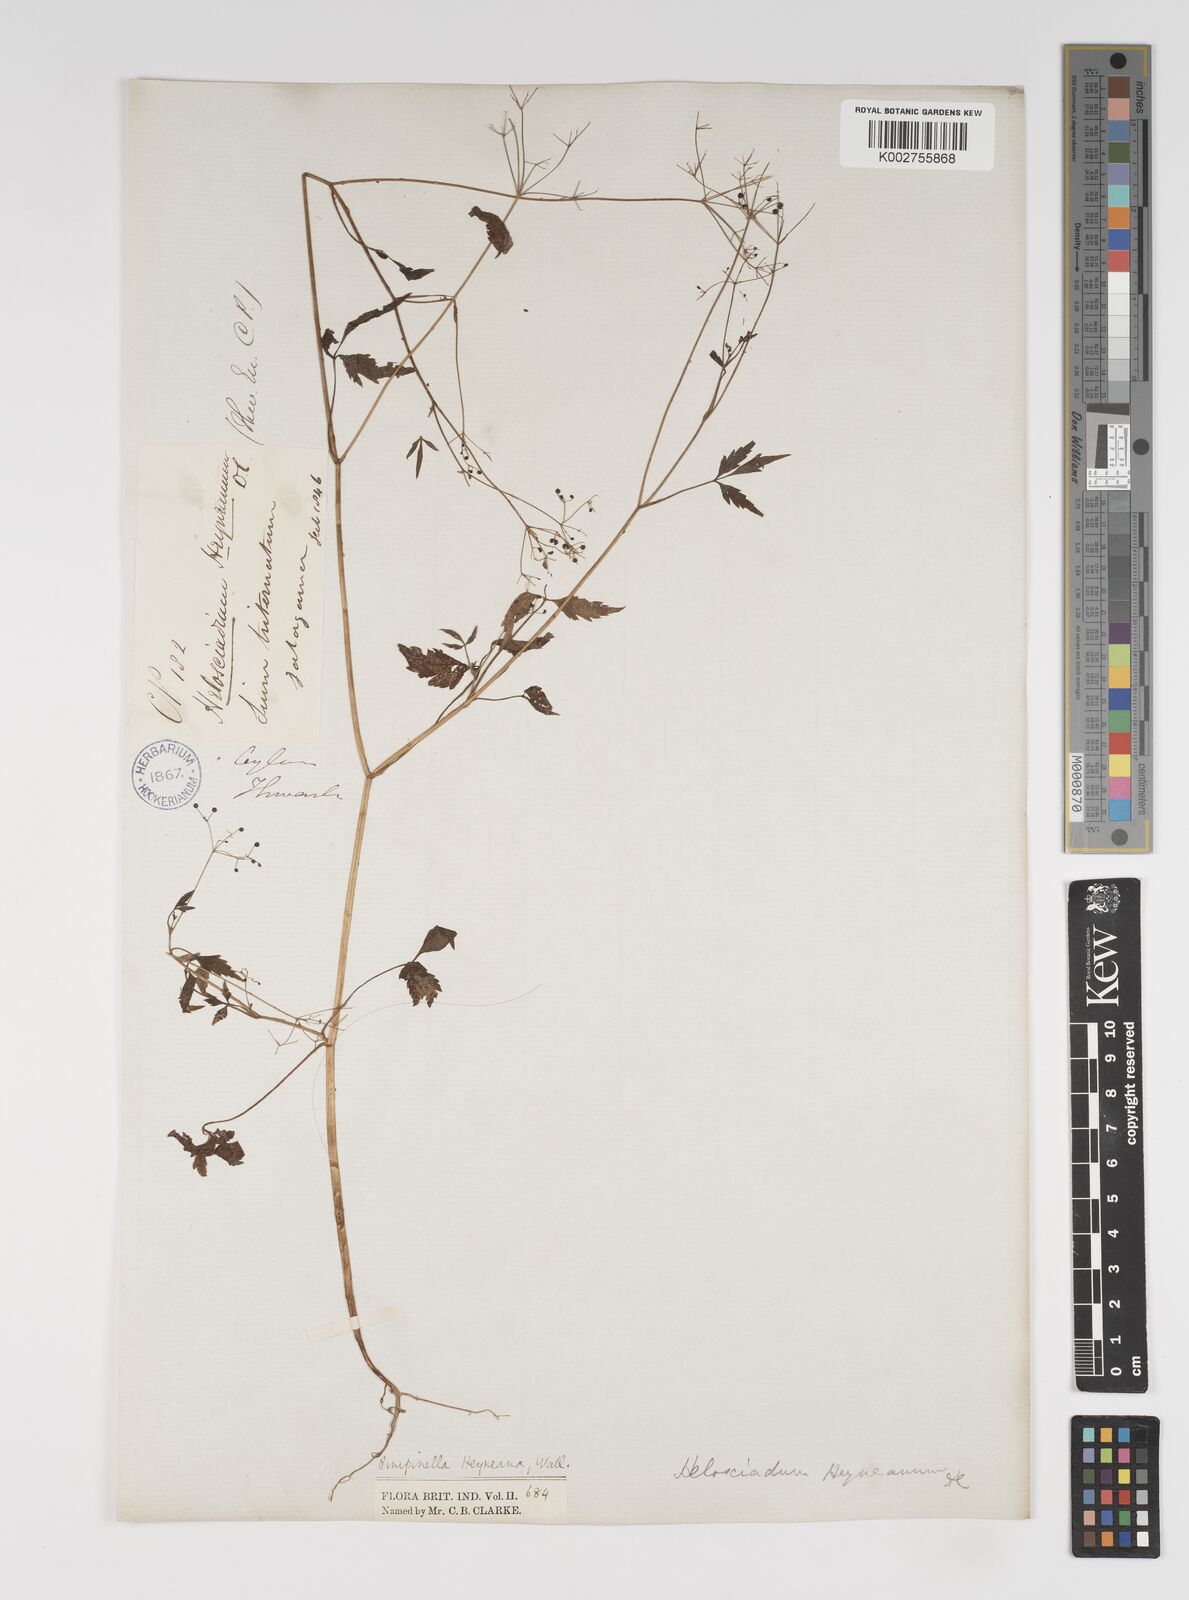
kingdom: Plantae
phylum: Tracheophyta
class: Magnoliopsida
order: Apiales
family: Apiaceae
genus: Pimpinella
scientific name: Pimpinella heyneana
